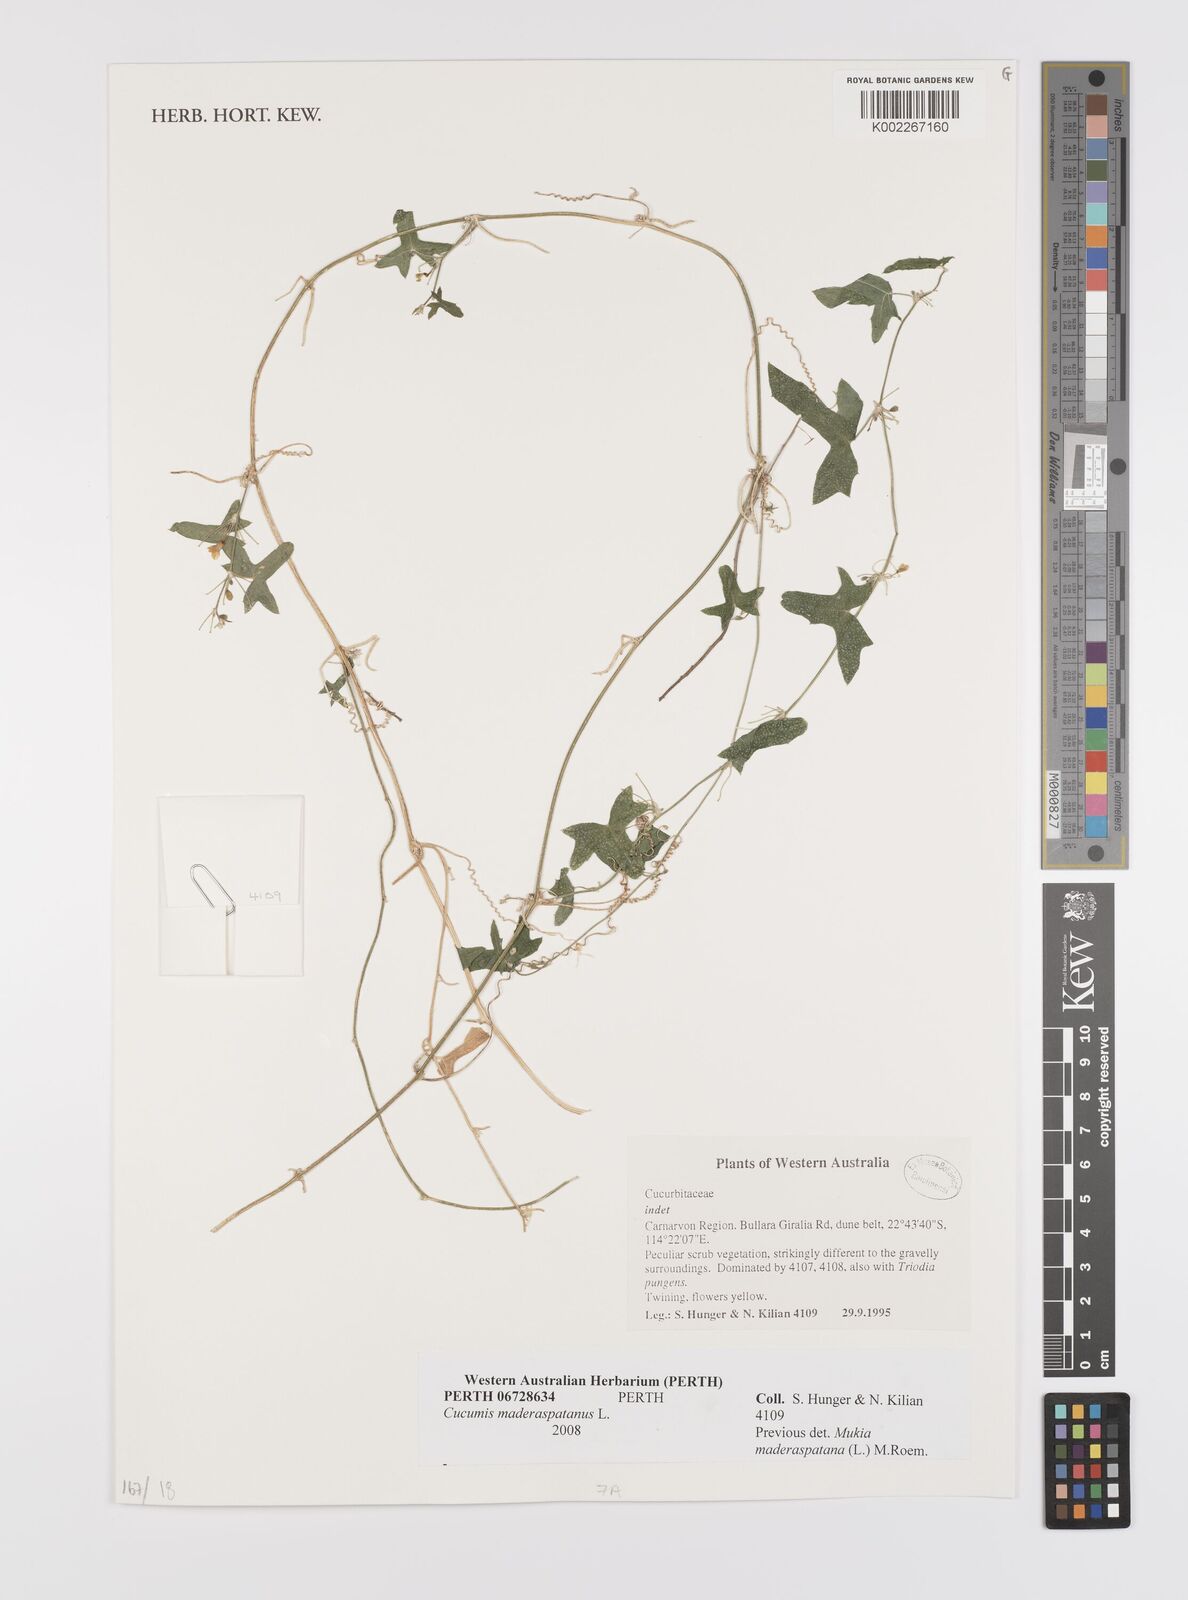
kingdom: Plantae
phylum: Tracheophyta
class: Magnoliopsida
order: Cucurbitales
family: Cucurbitaceae
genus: Cucumis
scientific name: Cucumis maderaspatanus
